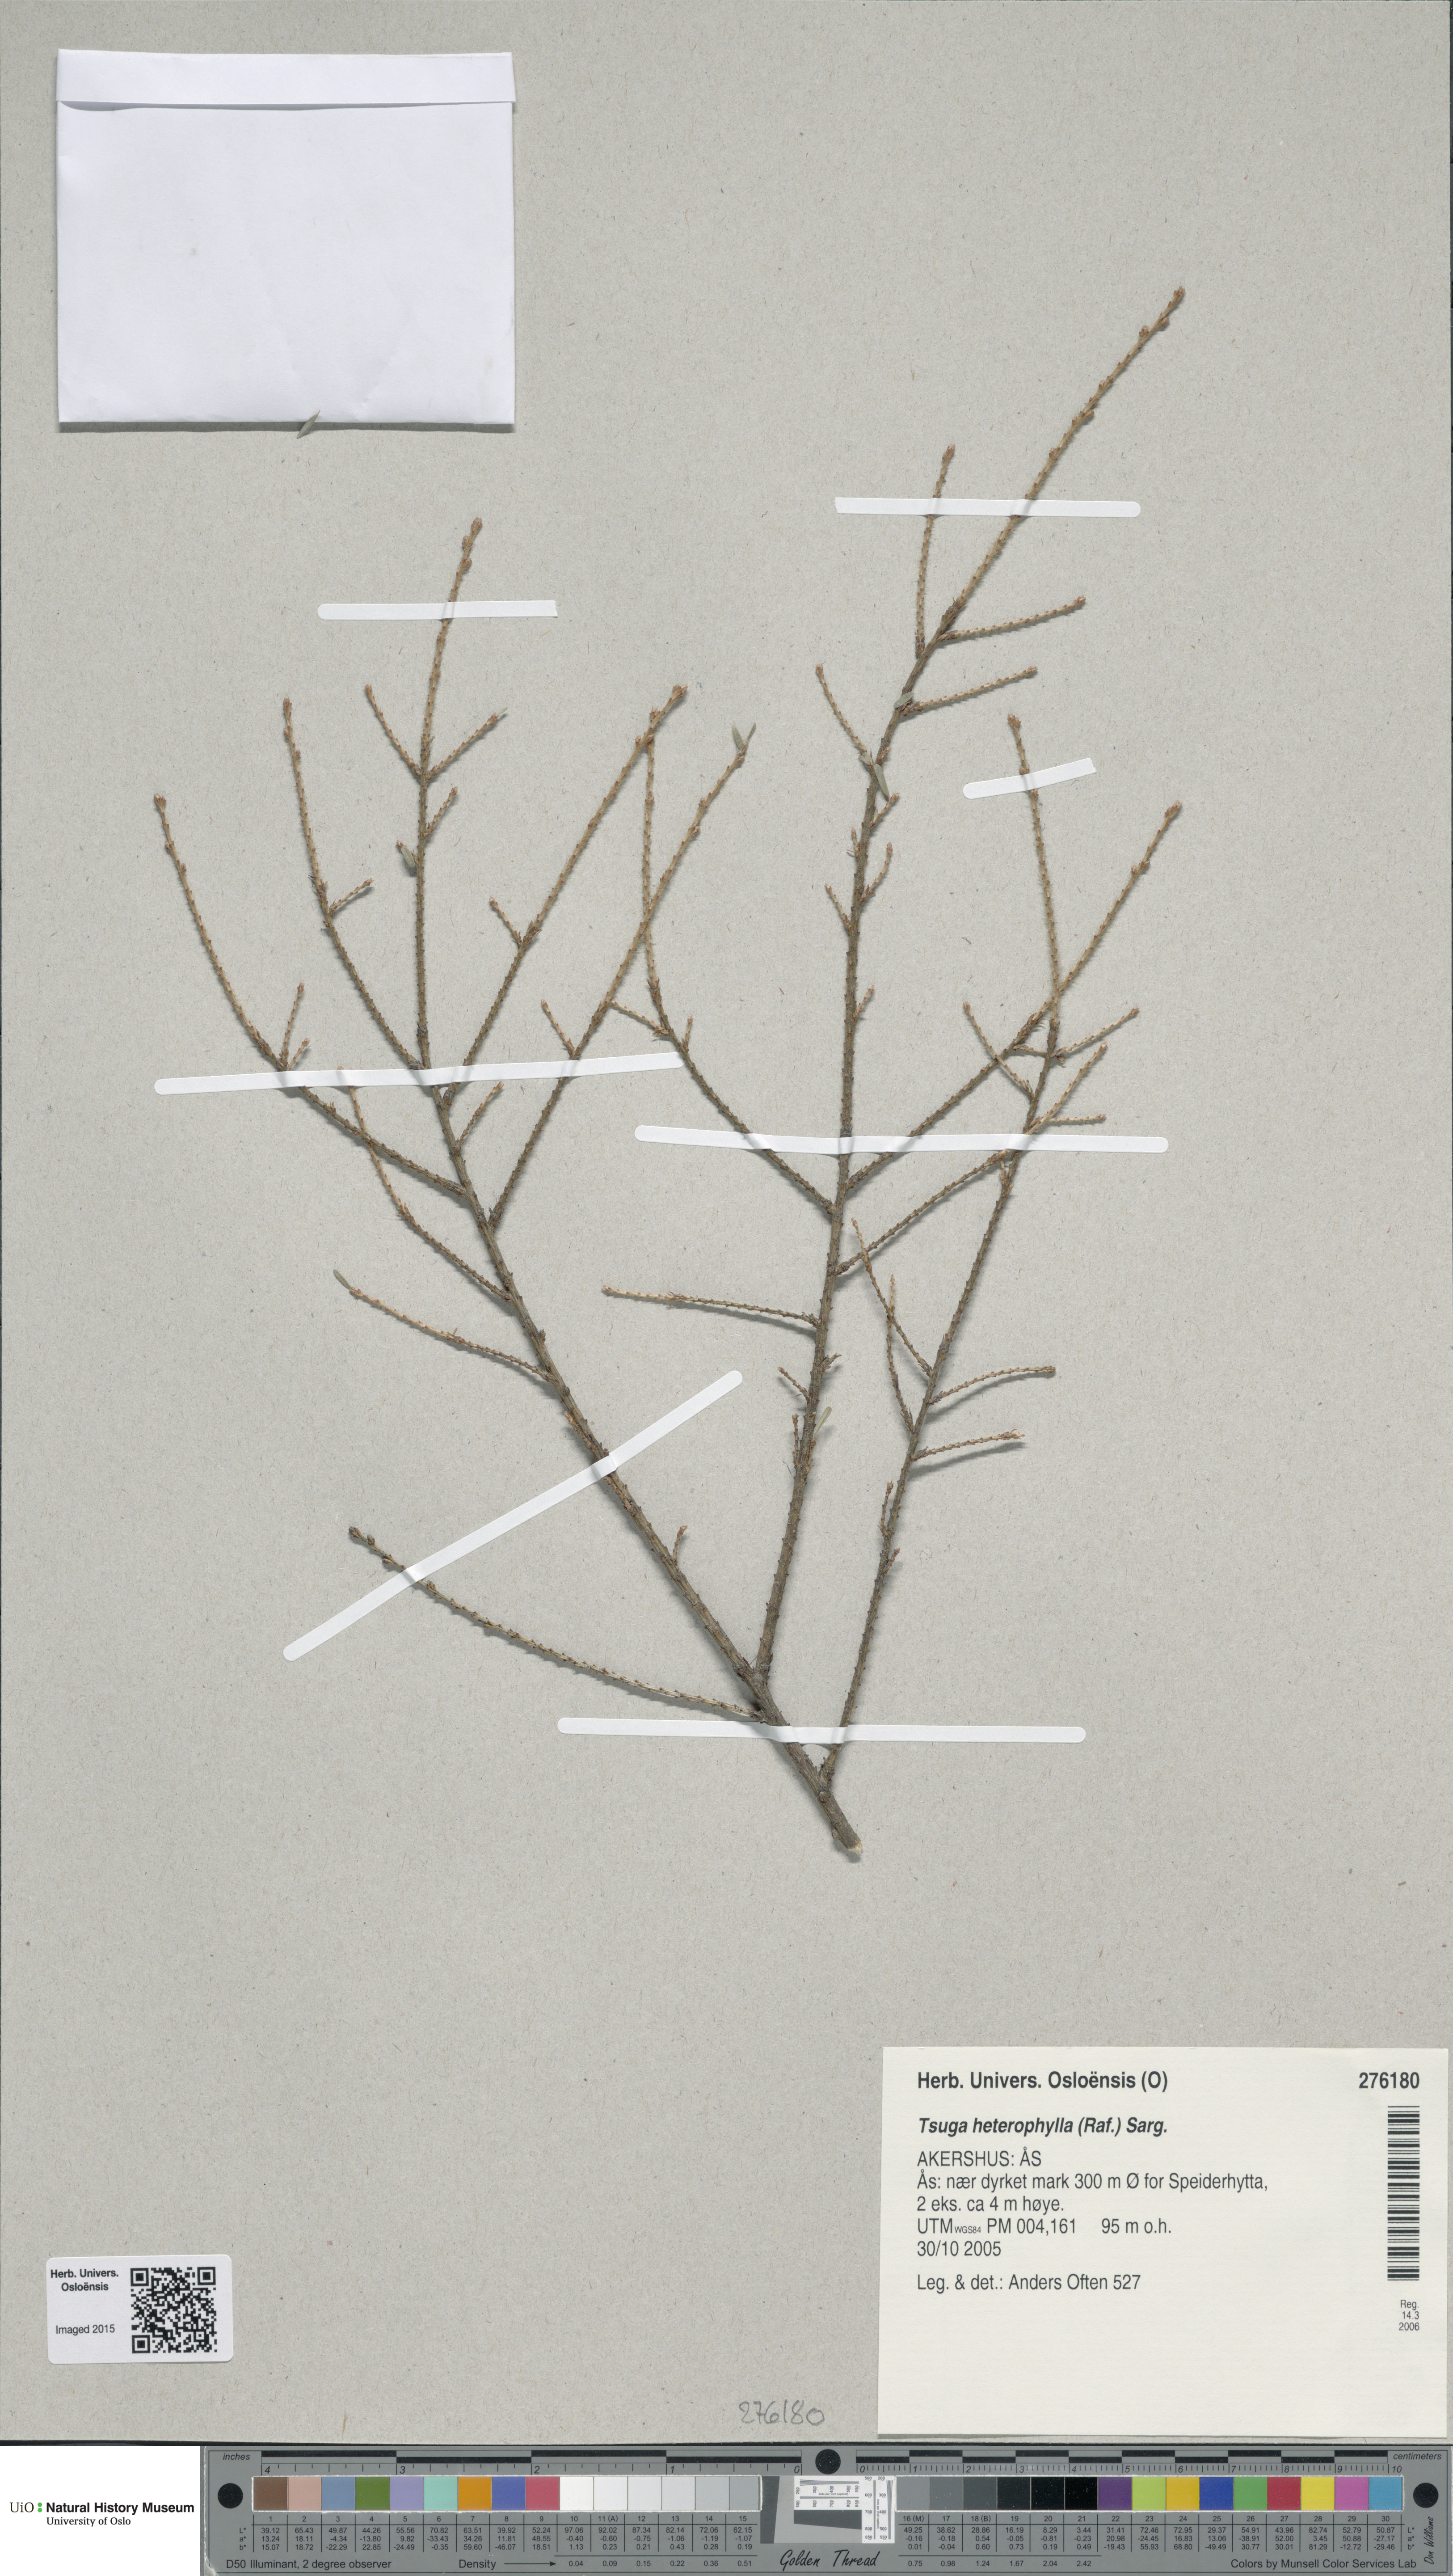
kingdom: Plantae
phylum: Tracheophyta
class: Pinopsida
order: Pinales
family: Pinaceae
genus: Tsuga
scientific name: Tsuga heterophylla
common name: Western hemlock
